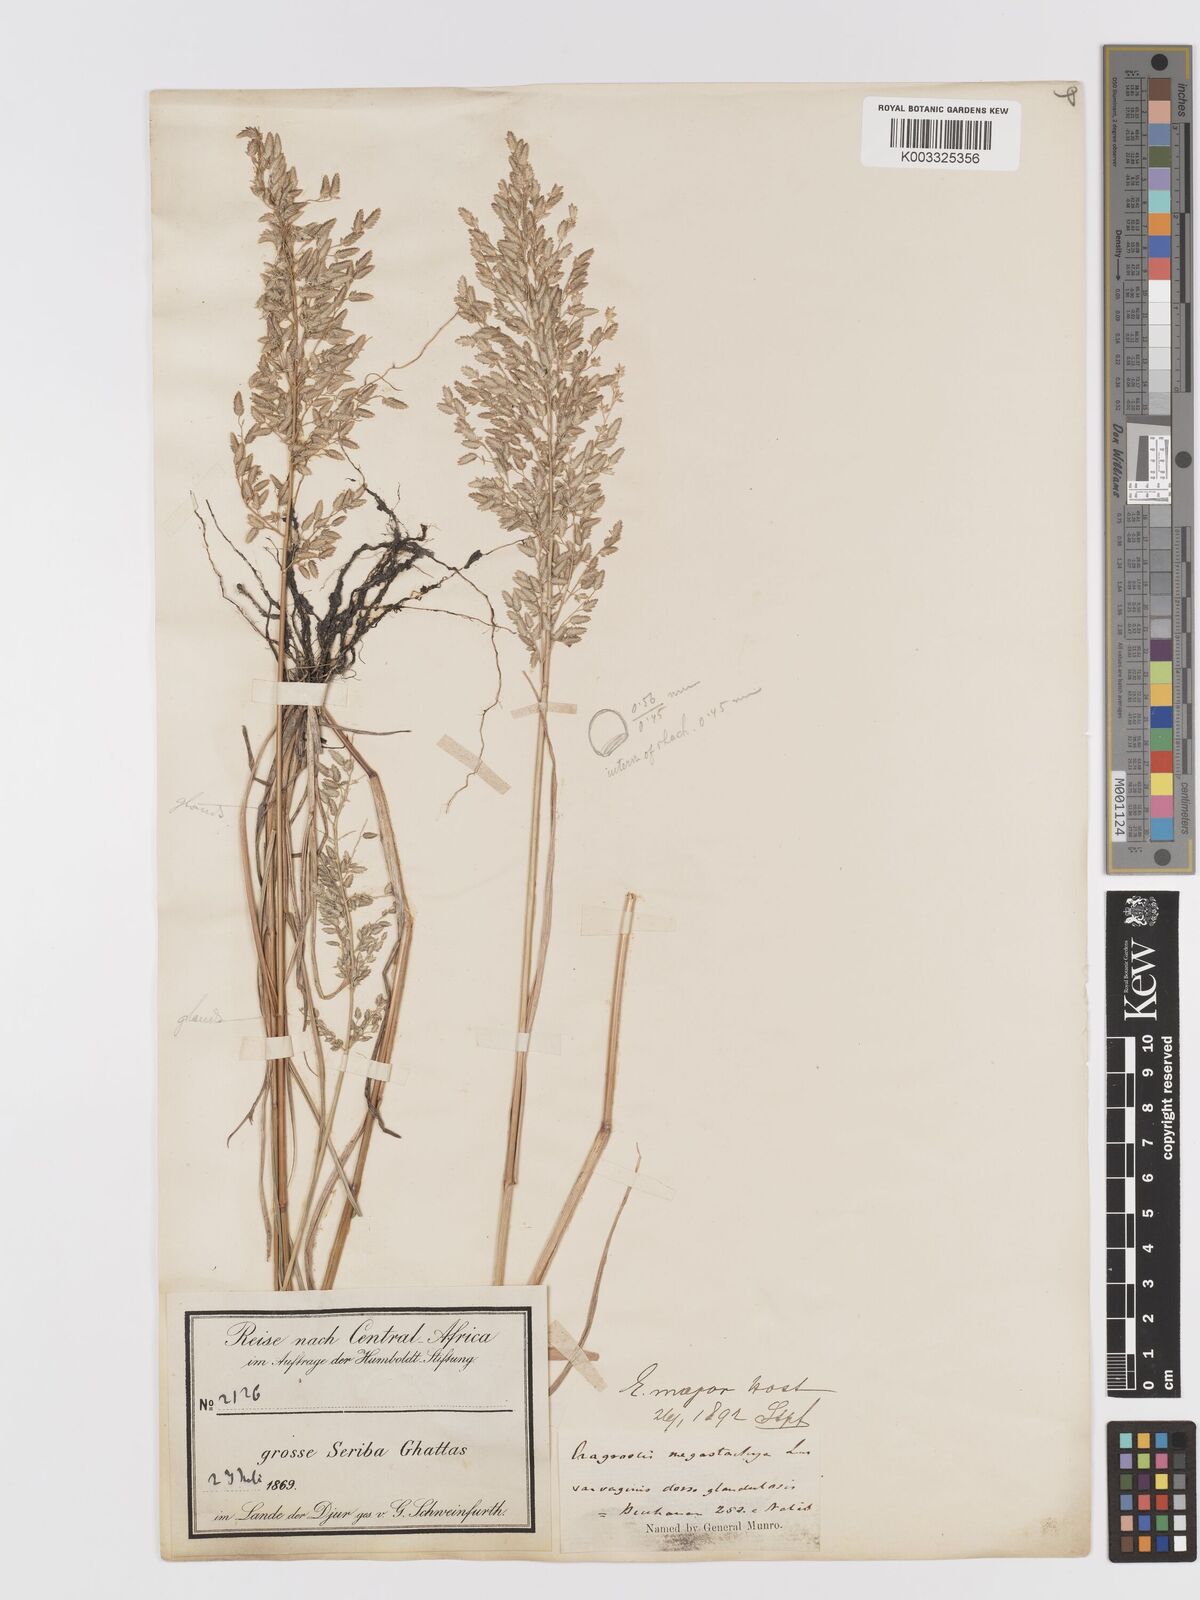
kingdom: Plantae
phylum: Tracheophyta
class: Liliopsida
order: Poales
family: Poaceae
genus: Eragrostis
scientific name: Eragrostis cilianensis
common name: Stinkgrass
